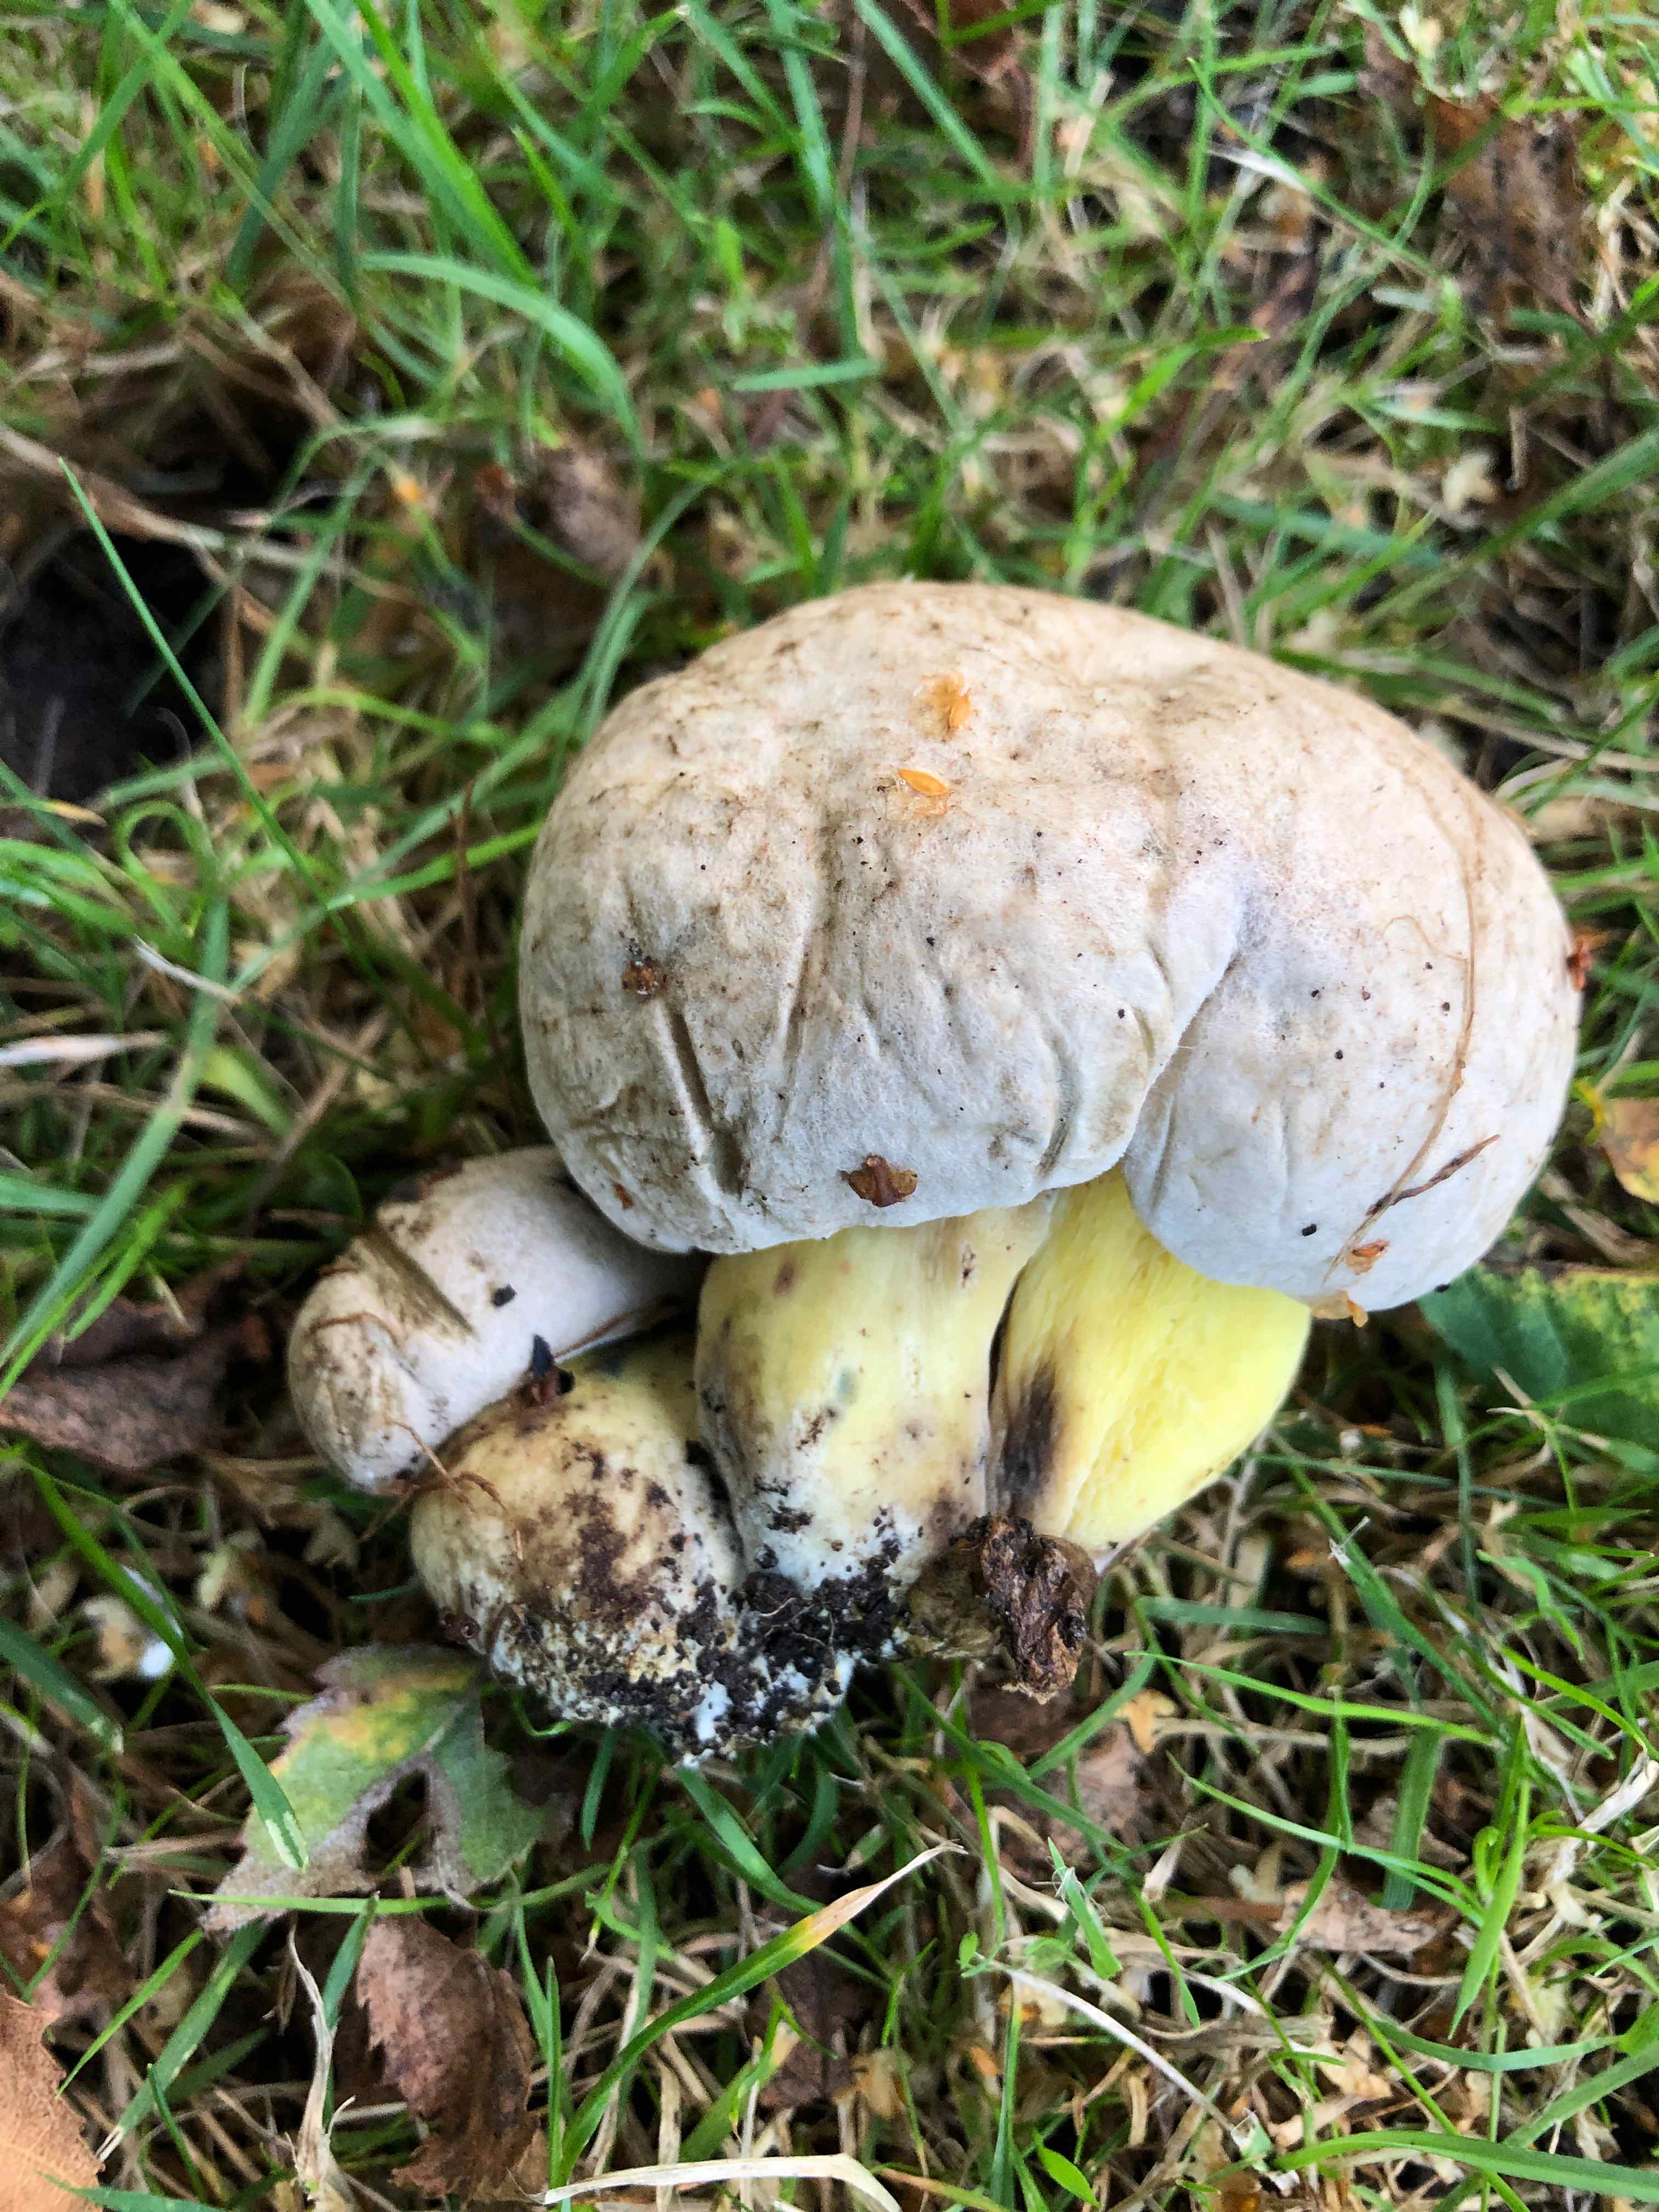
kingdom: Fungi
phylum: Basidiomycota
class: Agaricomycetes
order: Boletales
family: Boletaceae
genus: Caloboletus
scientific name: Caloboletus radicans
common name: rod-rørhat
